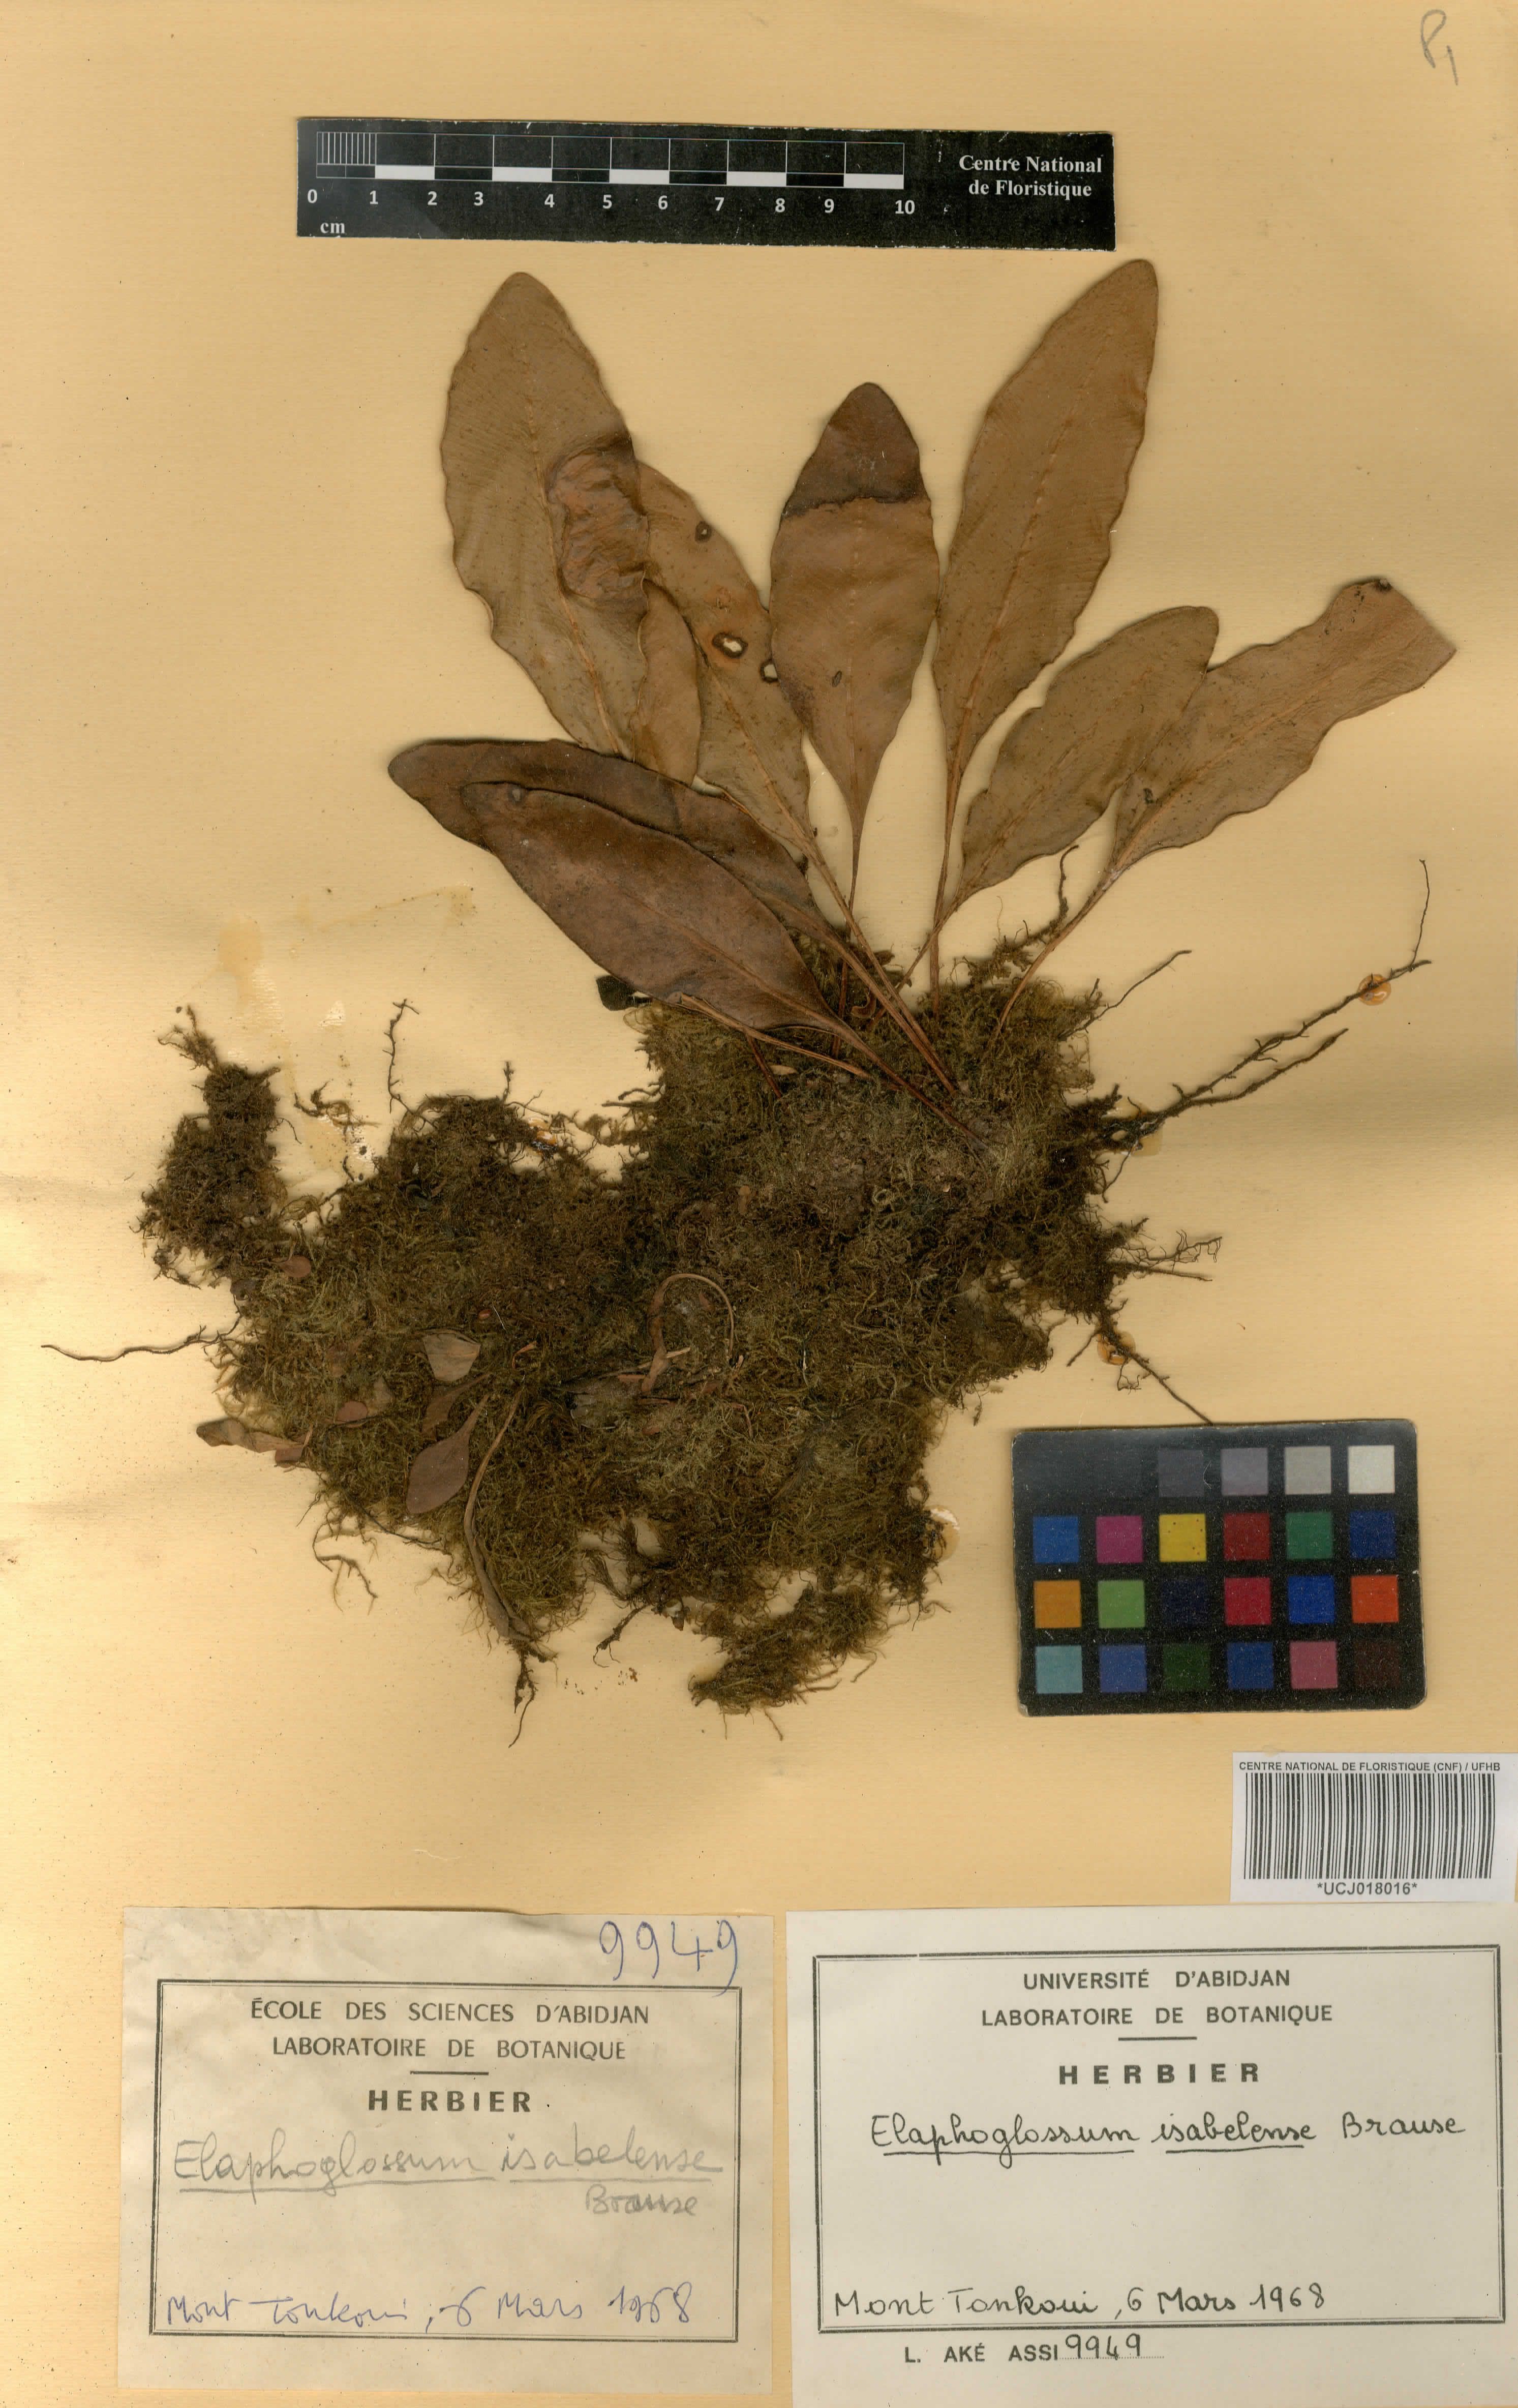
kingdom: Plantae
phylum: Tracheophyta
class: Polypodiopsida
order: Polypodiales
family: Dryopteridaceae
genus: Elaphoglossum
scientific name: Elaphoglossum isabelense
